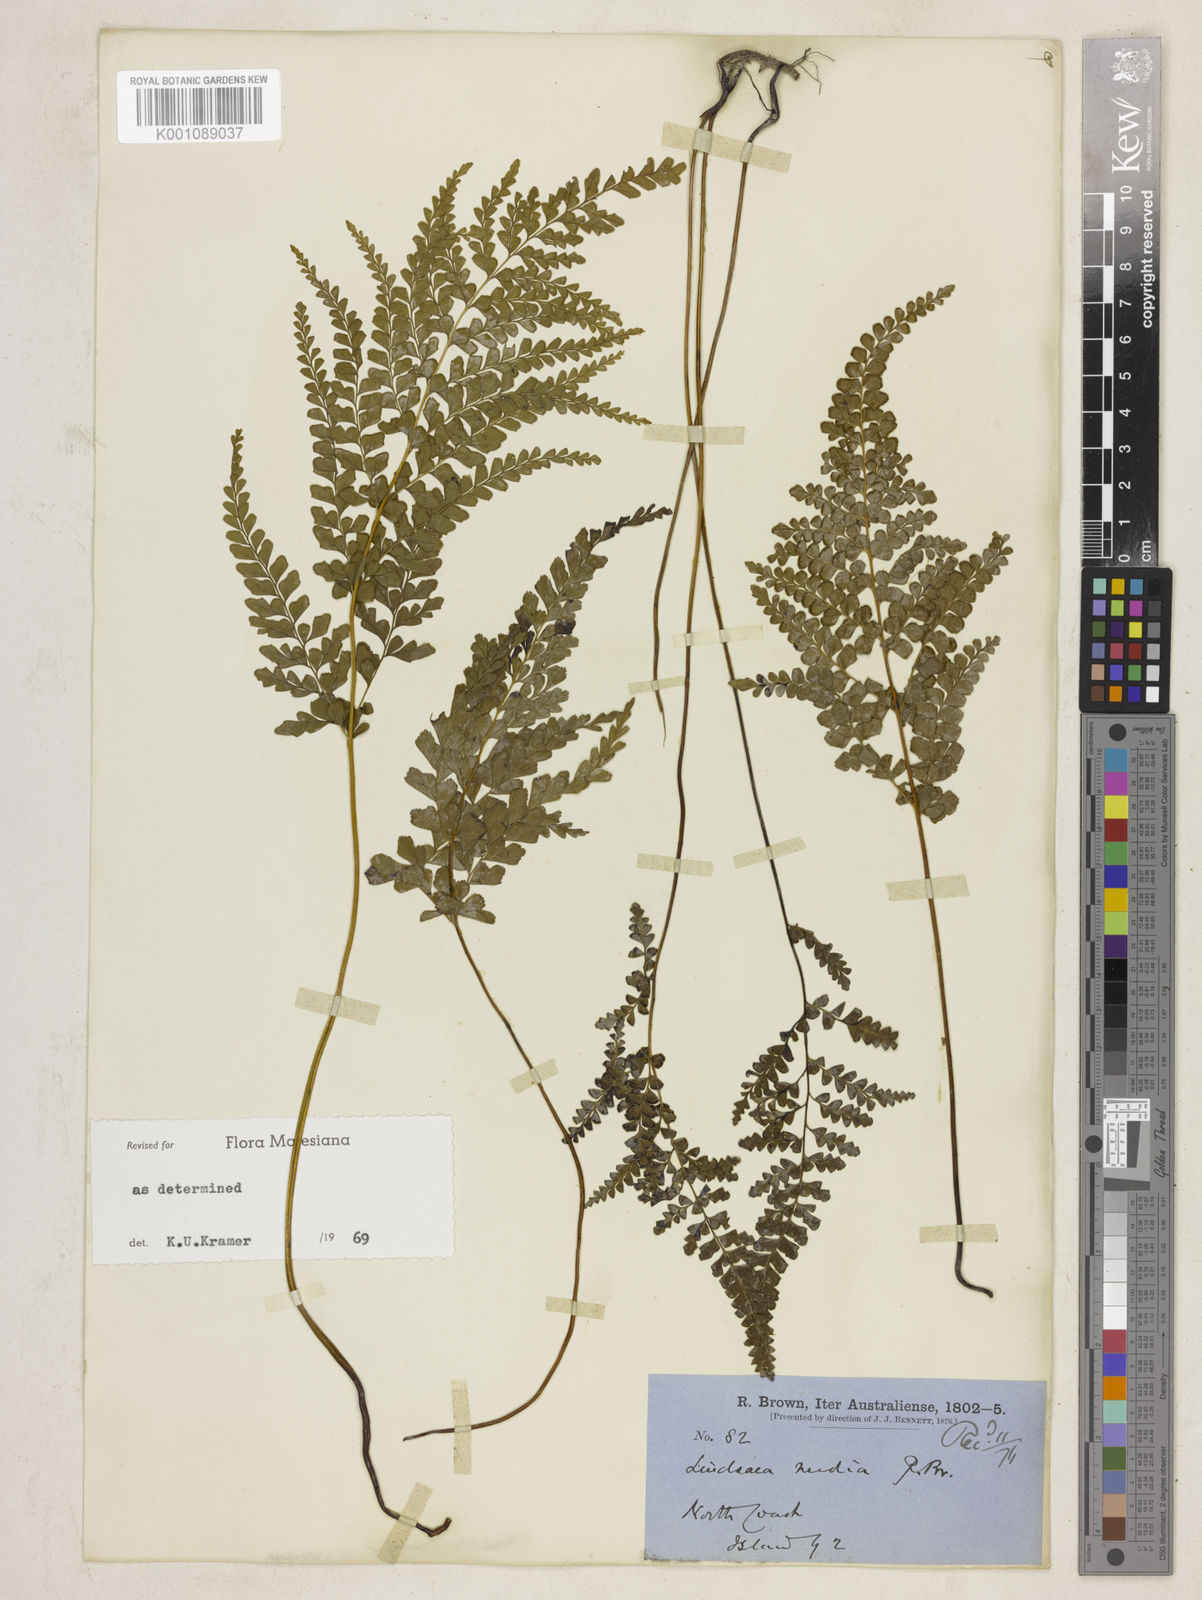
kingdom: Plantae
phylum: Tracheophyta
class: Polypodiopsida
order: Polypodiales
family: Lindsaeaceae
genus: Lindsaea
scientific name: Lindsaea media
